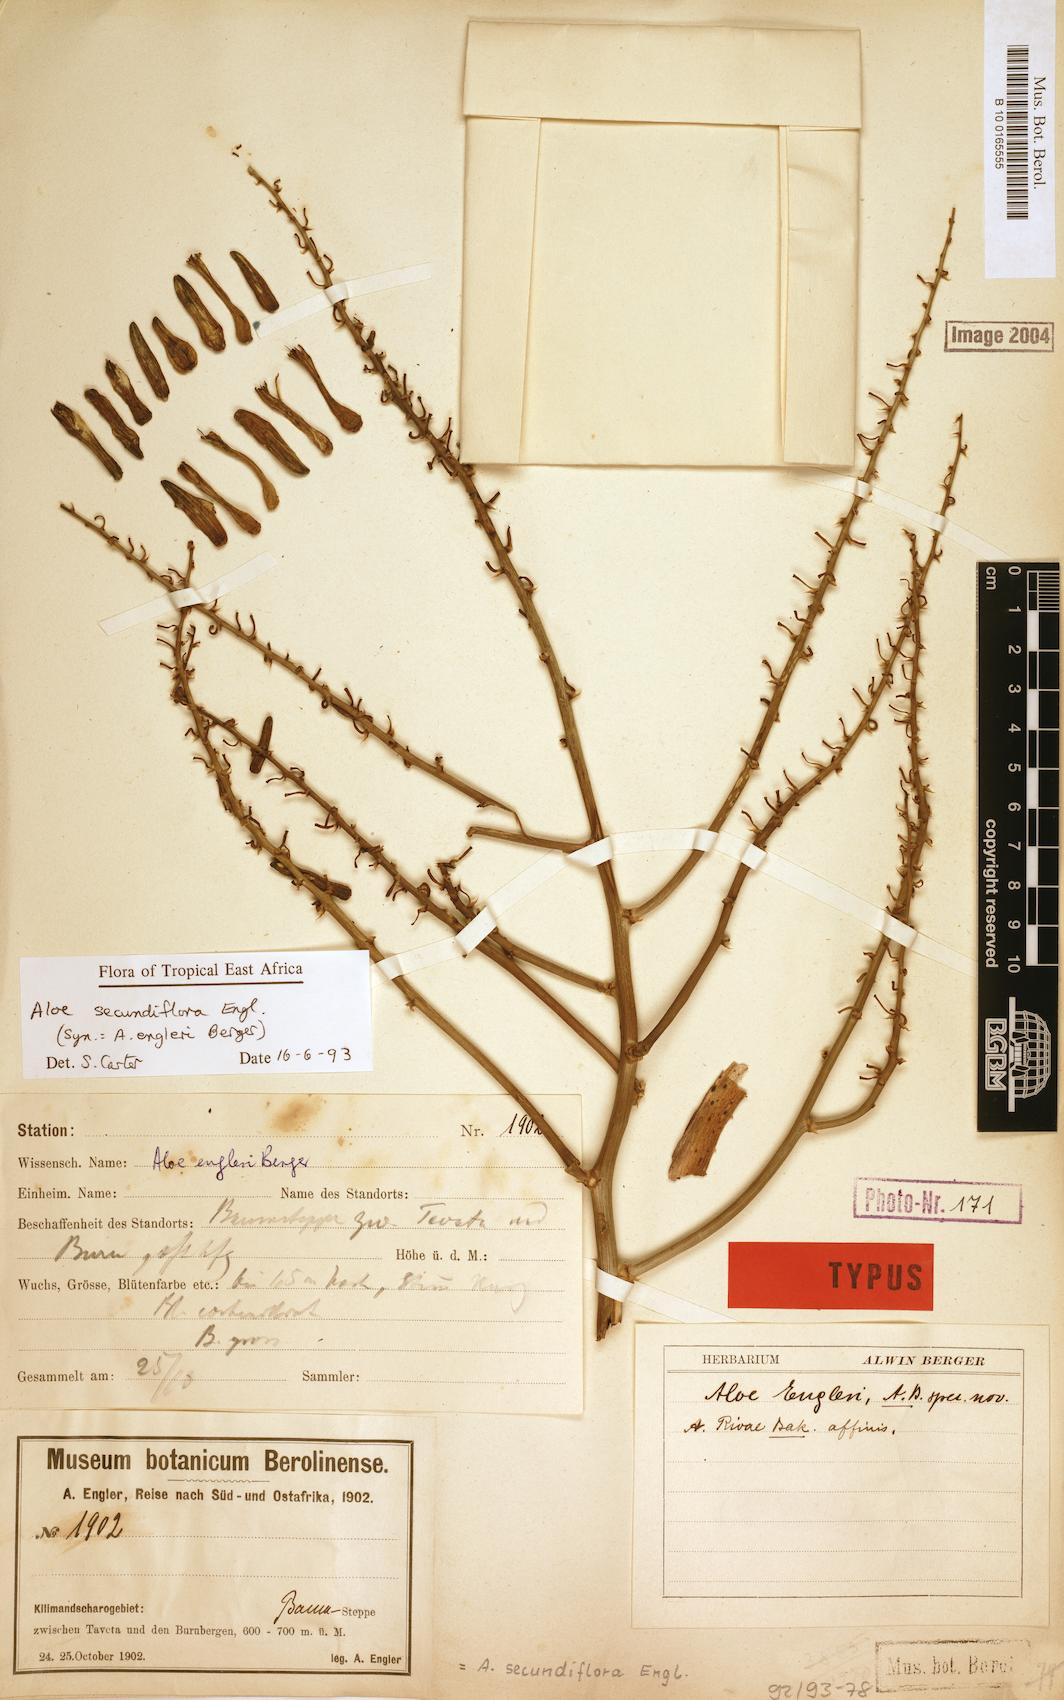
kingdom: Plantae
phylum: Tracheophyta
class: Liliopsida
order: Asparagales
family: Asphodelaceae
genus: Aloe
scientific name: Aloe secundiflora
